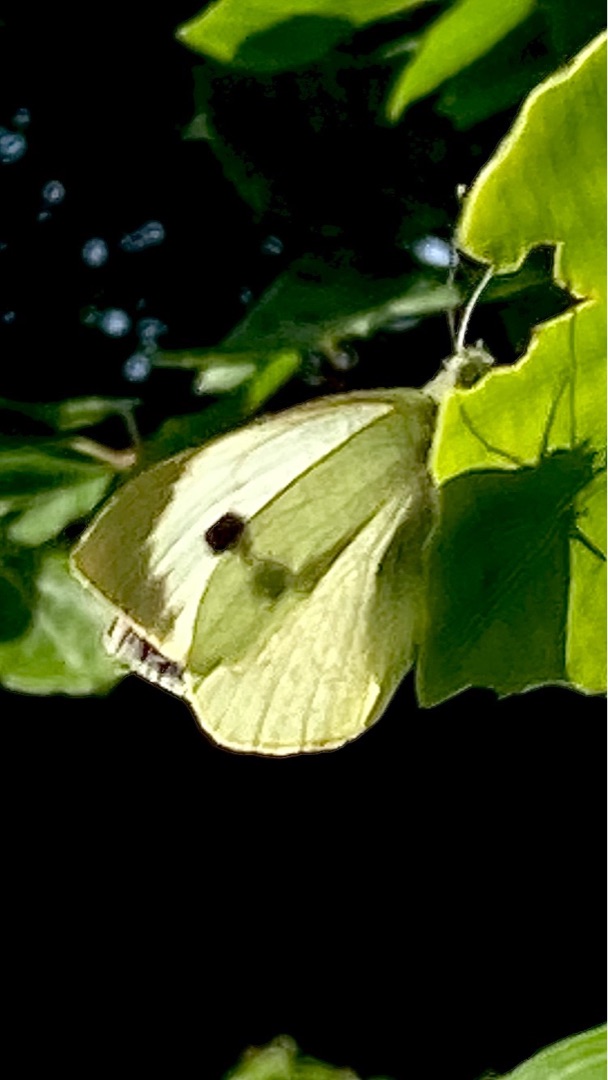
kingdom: Animalia
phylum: Arthropoda
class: Insecta
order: Lepidoptera
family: Pieridae
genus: Pieris
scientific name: Pieris brassicae
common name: Stor kålsommerfugl
